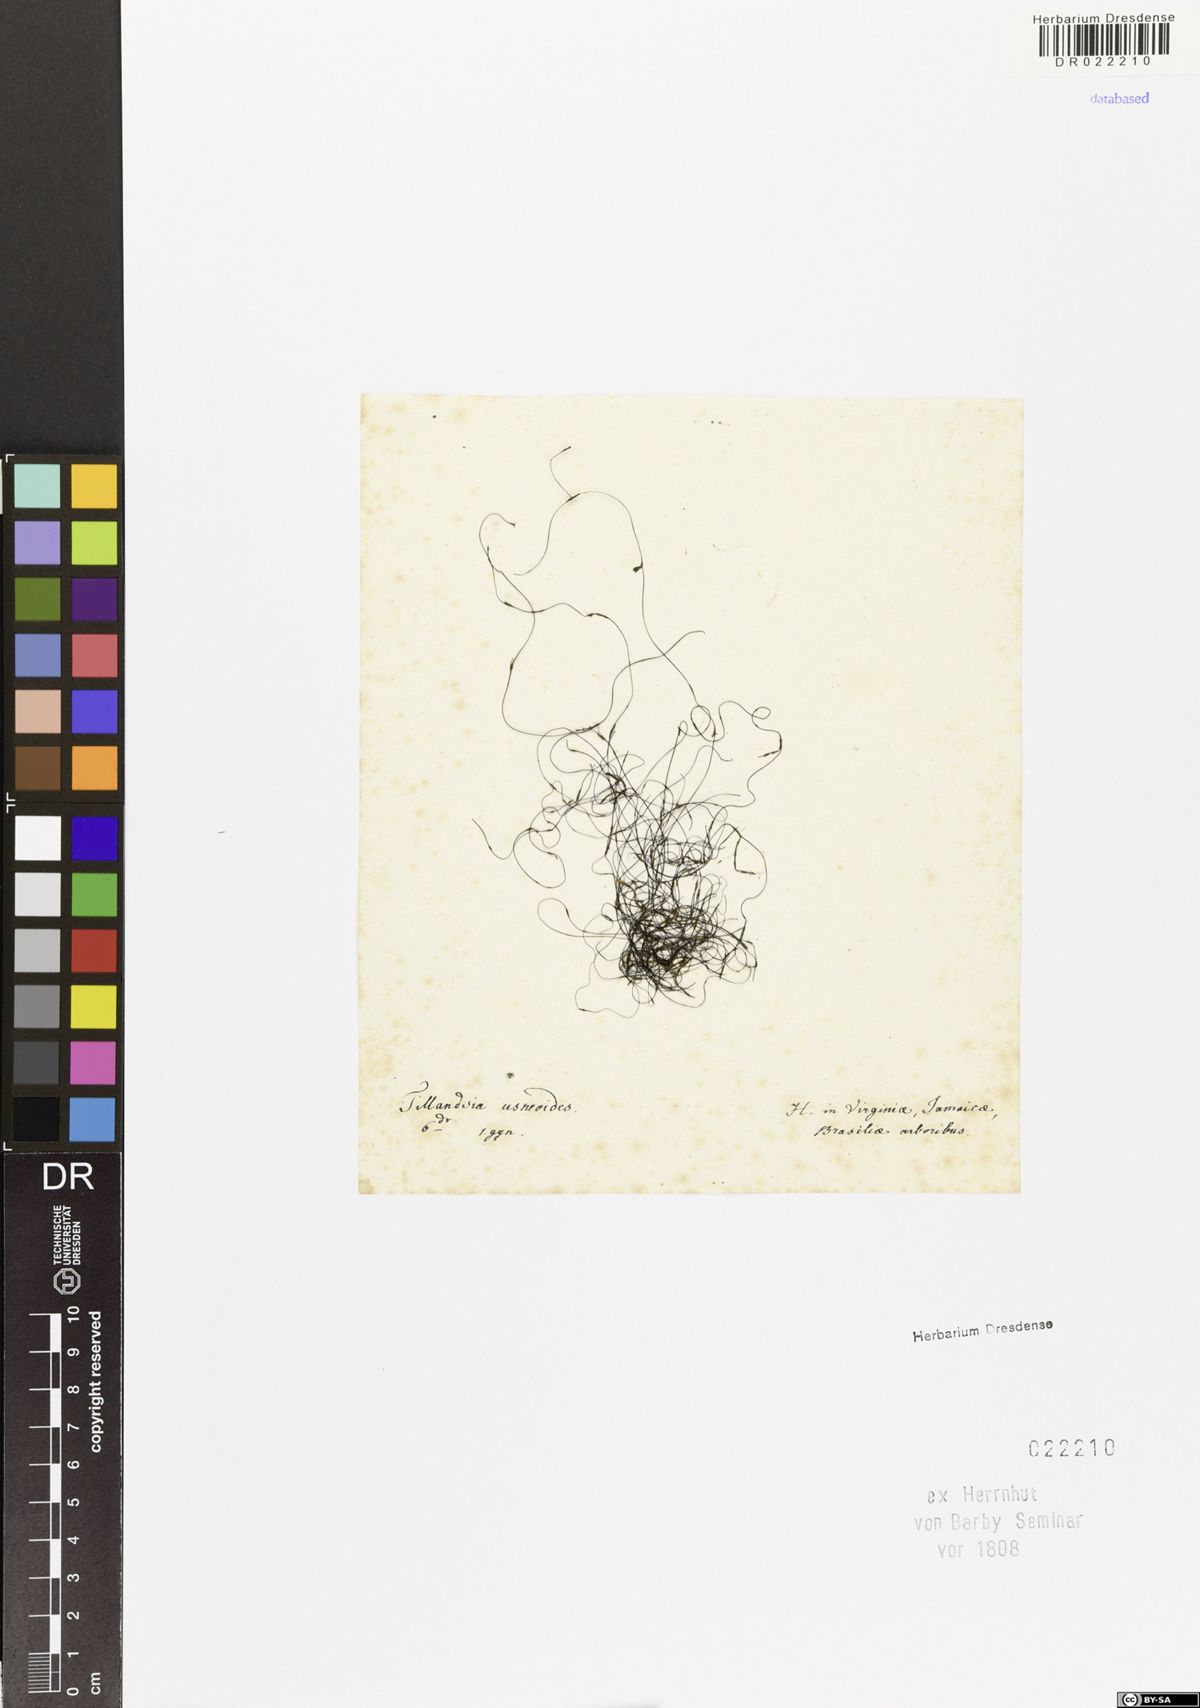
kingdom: Plantae
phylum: Tracheophyta
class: Liliopsida
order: Poales
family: Bromeliaceae
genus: Tillandsia
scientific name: Tillandsia usneoides
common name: Spanish moss
